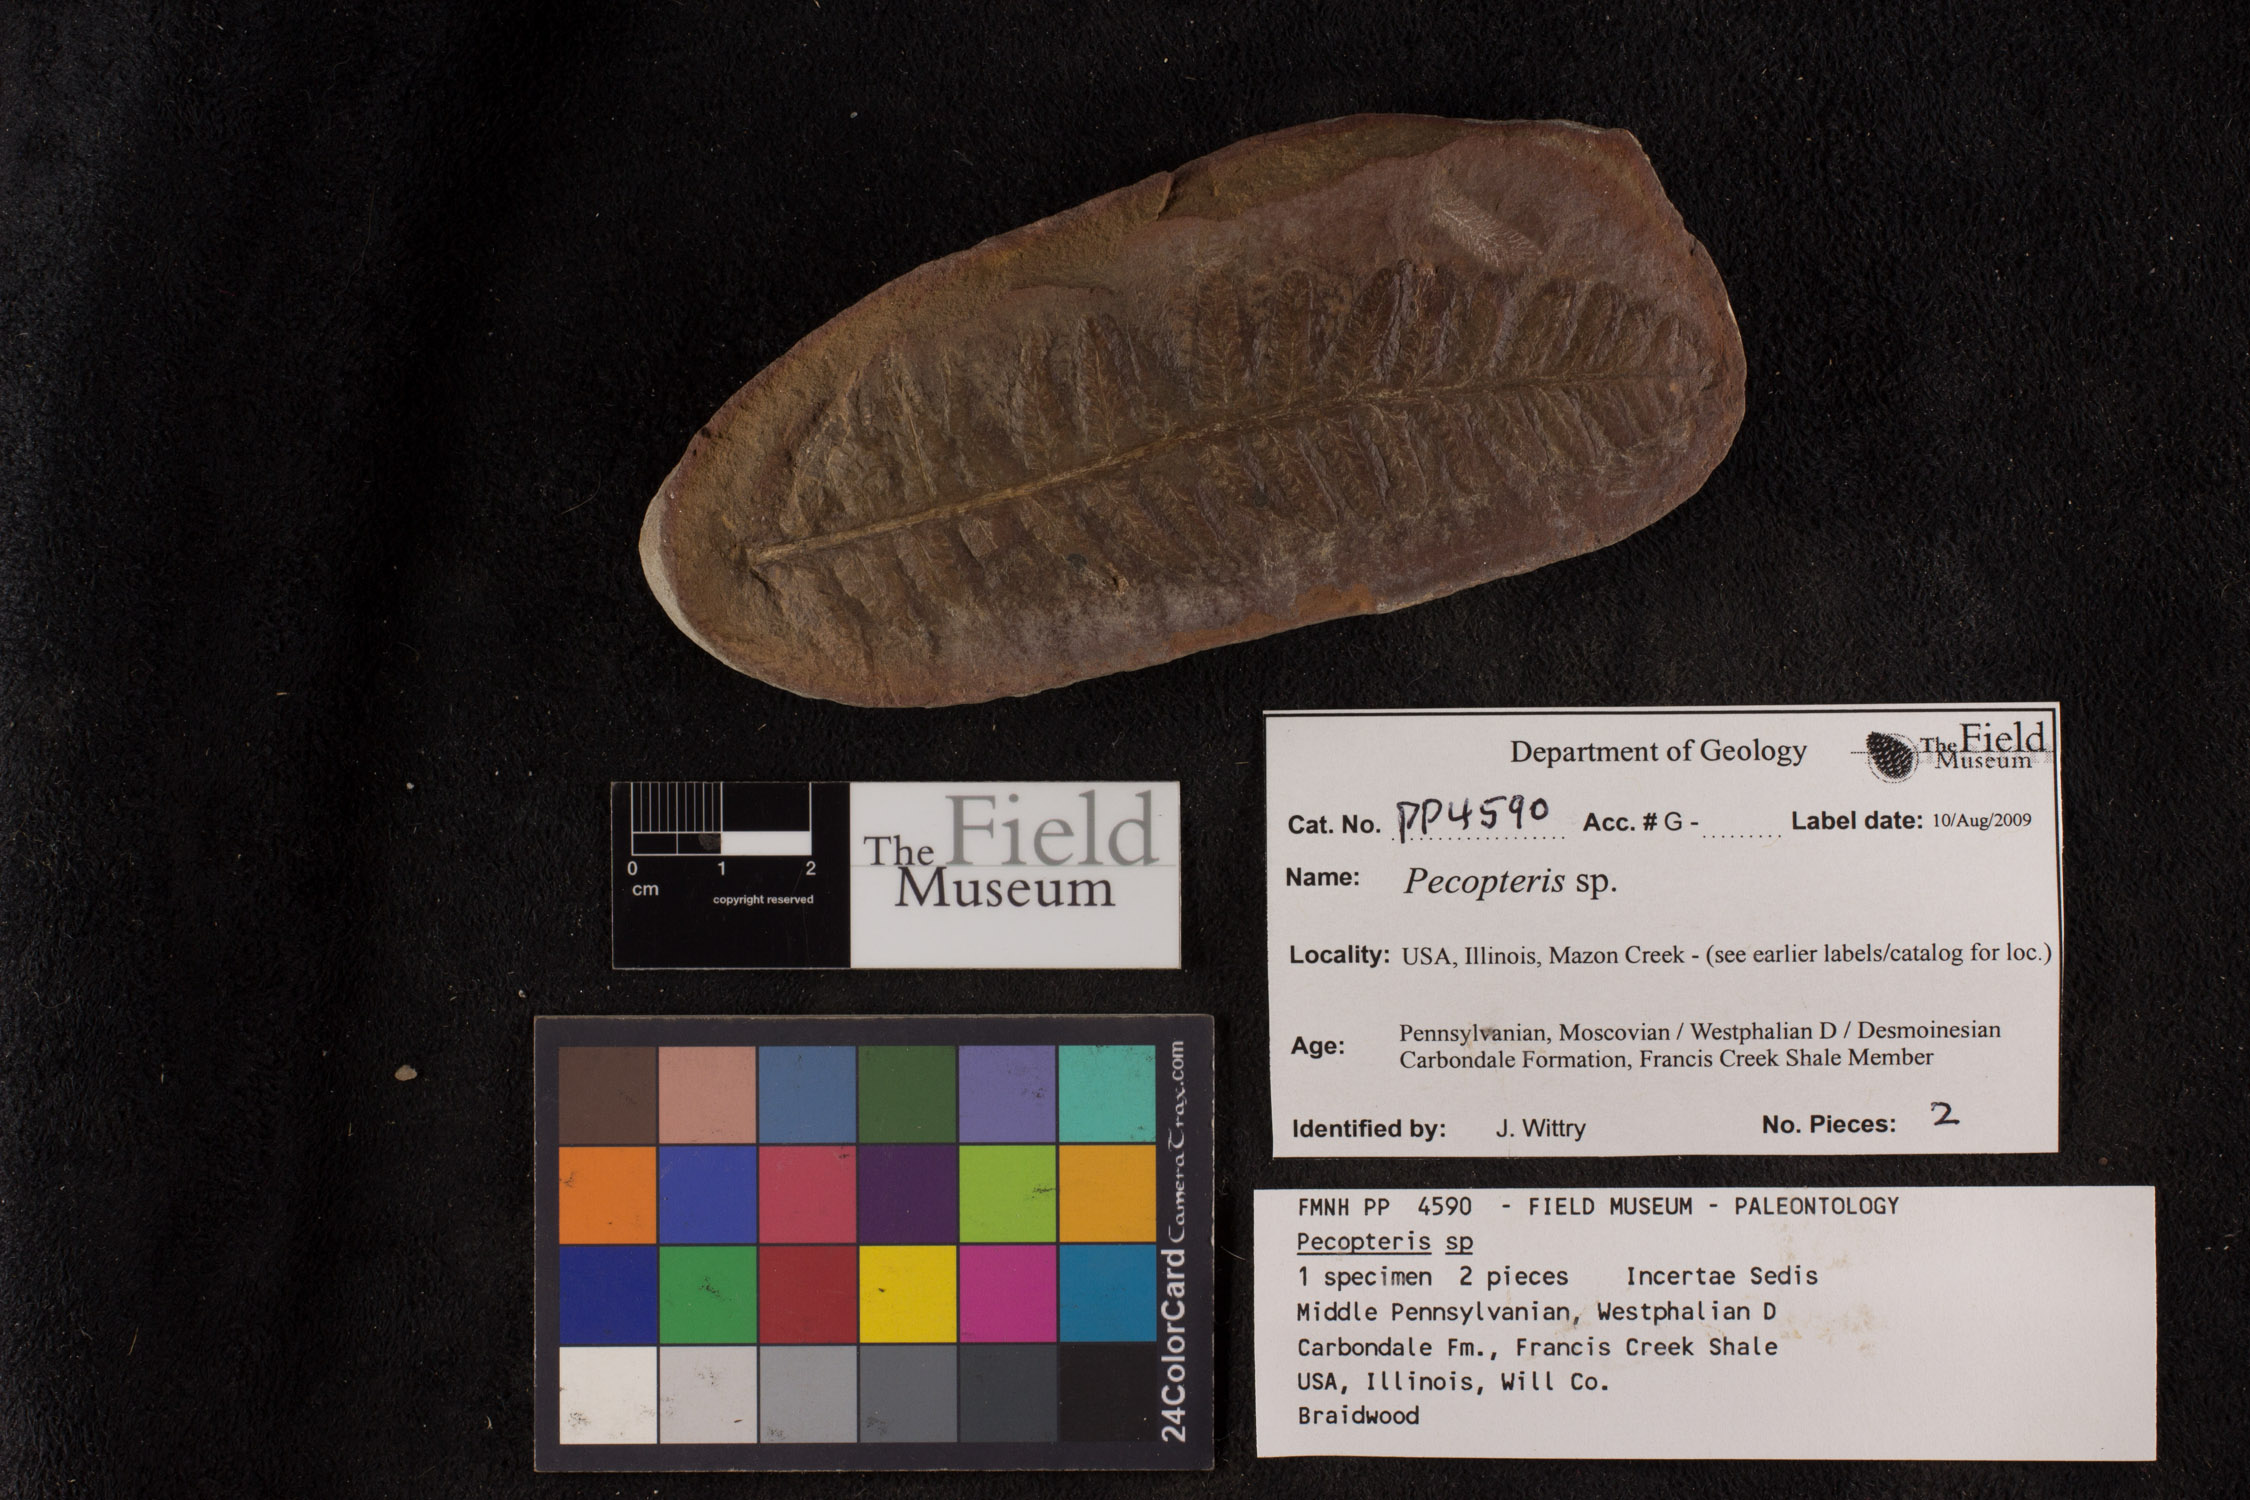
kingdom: Plantae
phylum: Tracheophyta
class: Polypodiopsida
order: Marattiales
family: Asterothecaceae
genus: Pecopteris
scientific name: Pecopteris
